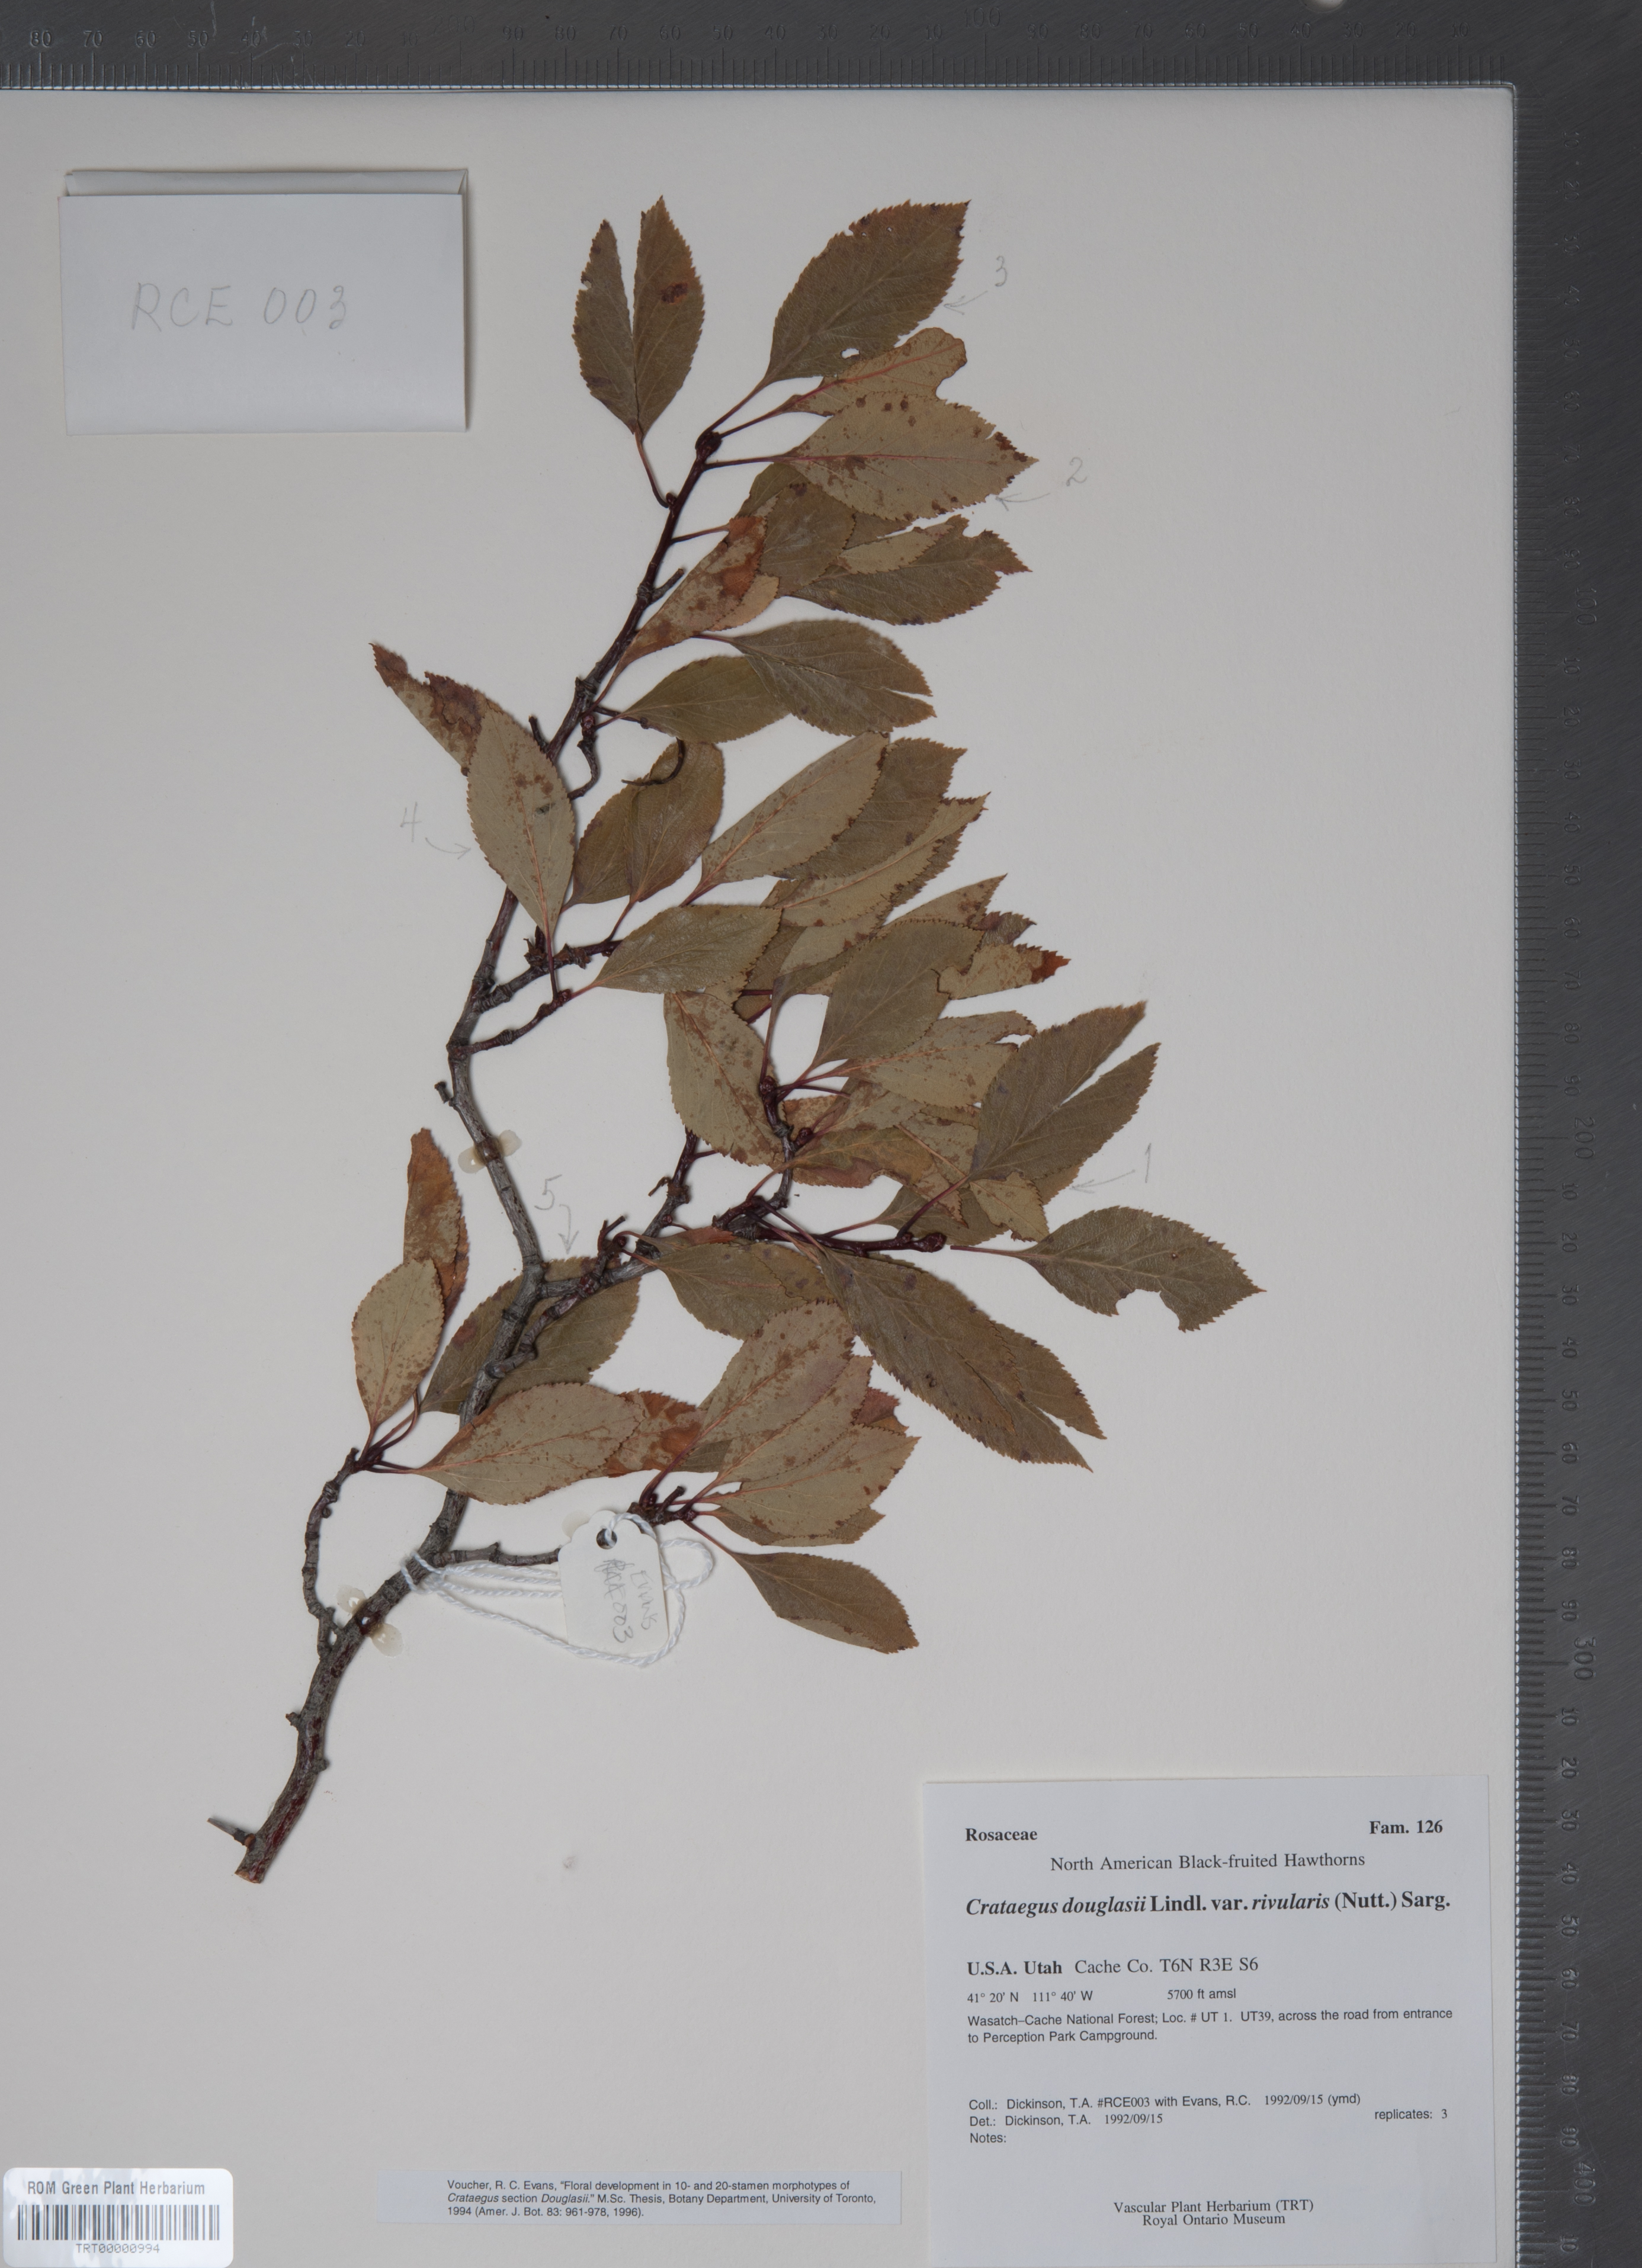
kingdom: Plantae
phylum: Tracheophyta
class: Magnoliopsida
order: Rosales
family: Rosaceae
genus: Crataegus
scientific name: Crataegus rivularis
